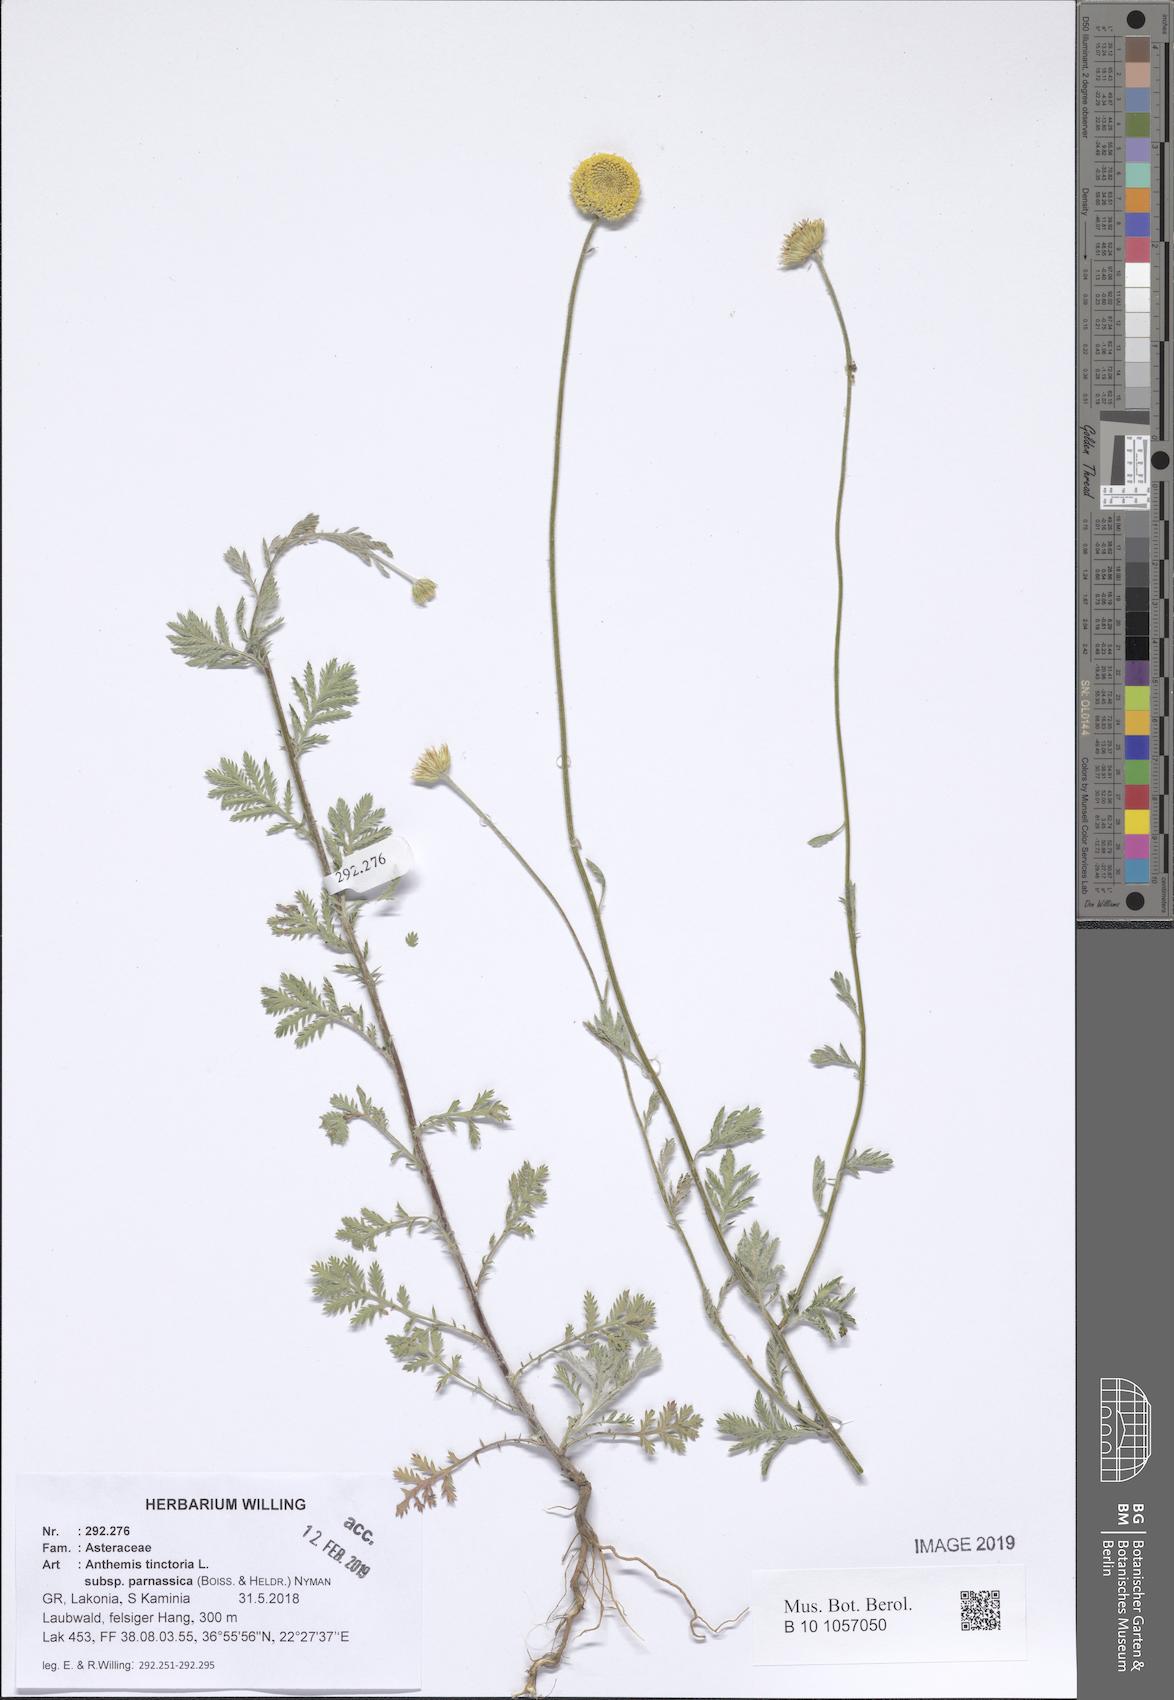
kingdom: Plantae
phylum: Tracheophyta
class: Magnoliopsida
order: Asterales
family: Asteraceae
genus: Cota
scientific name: Cota tinctoria
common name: Golden chamomile
